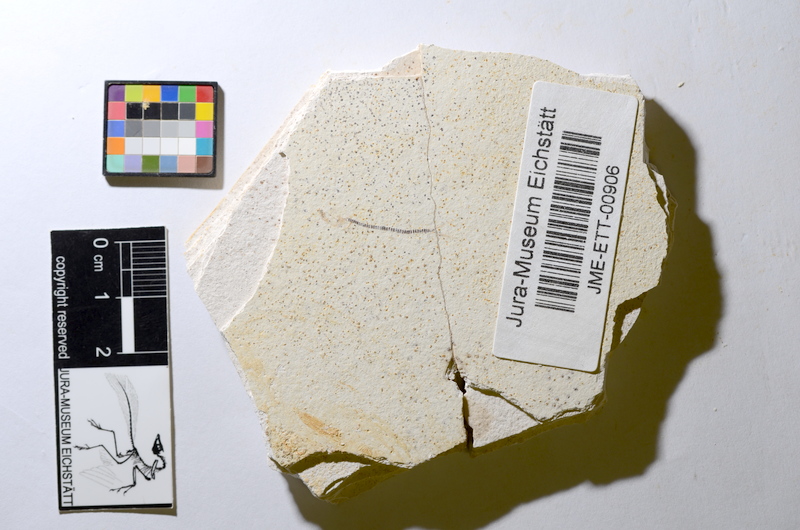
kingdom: Animalia
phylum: Chordata
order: Salmoniformes
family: Orthogonikleithridae
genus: Orthogonikleithrus
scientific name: Orthogonikleithrus hoelli
